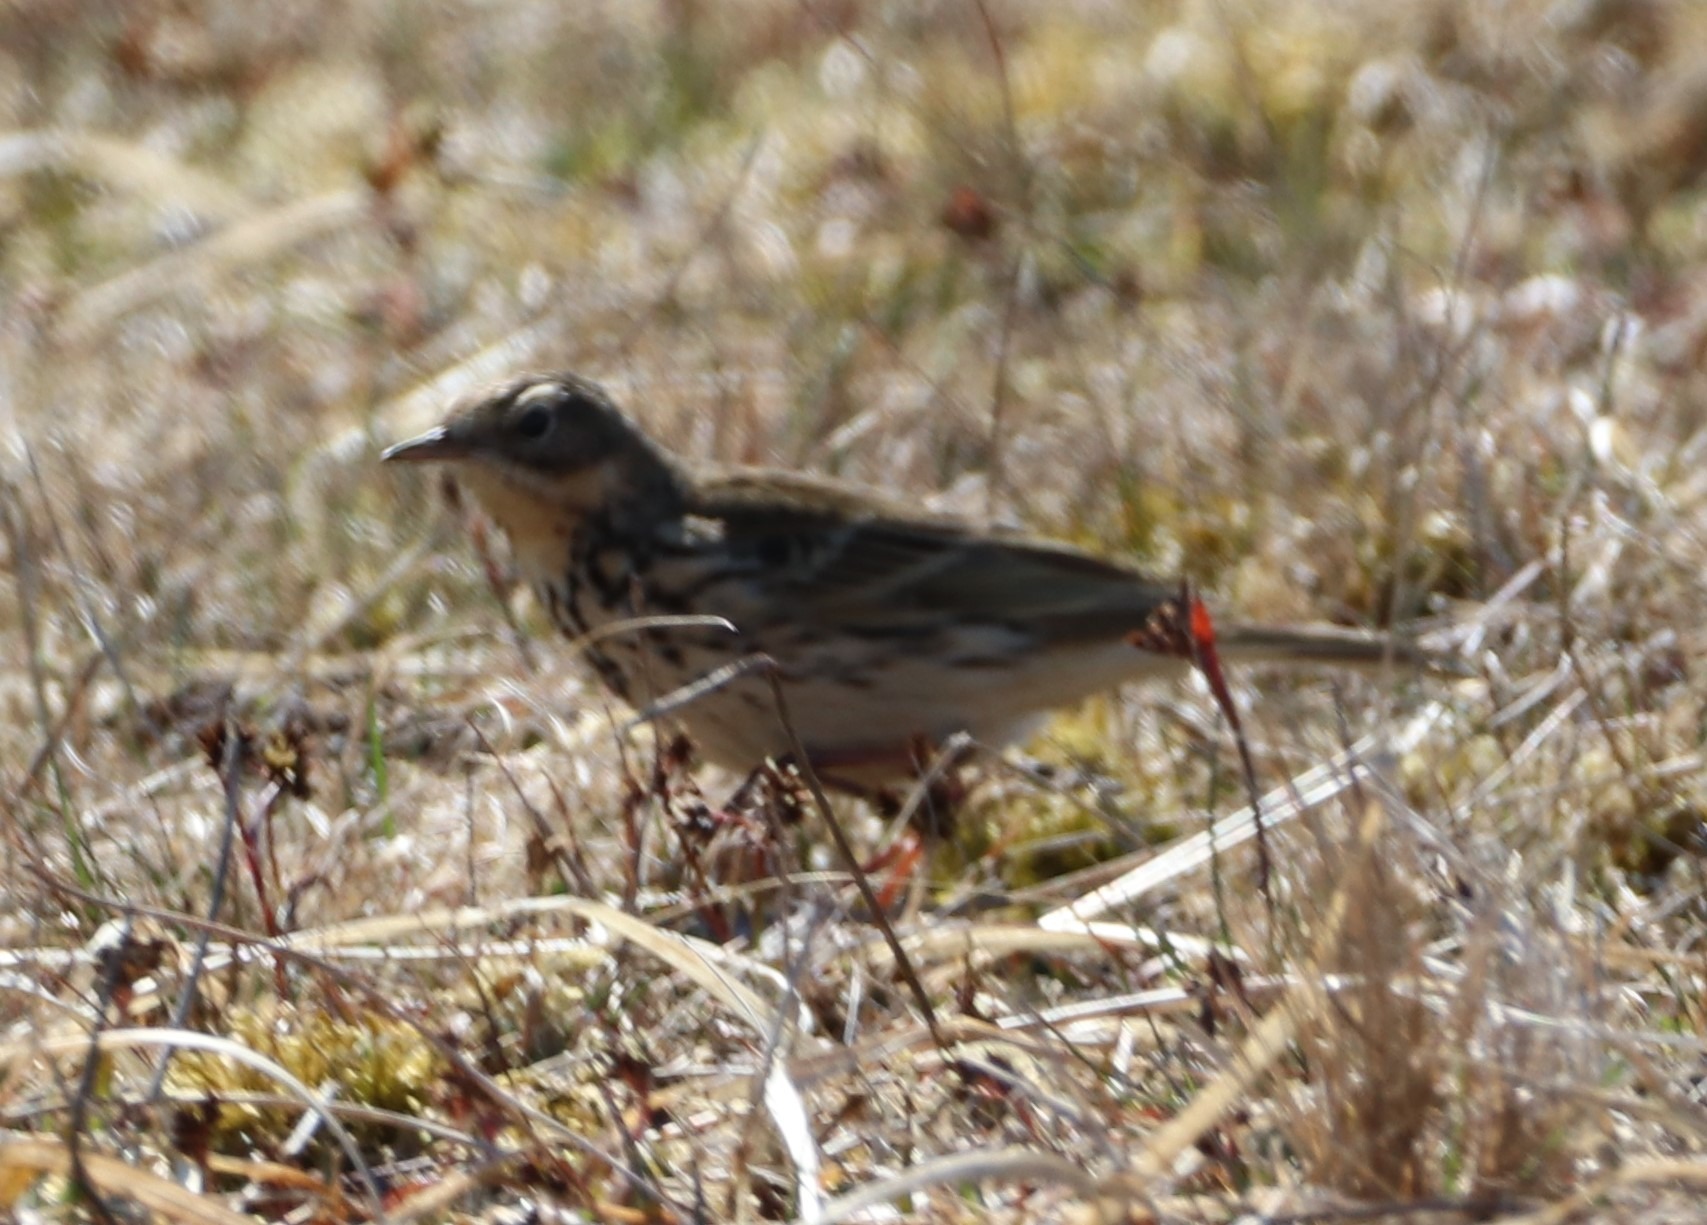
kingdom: Animalia
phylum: Chordata
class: Aves
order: Passeriformes
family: Motacillidae
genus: Anthus
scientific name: Anthus pratensis
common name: Engpiber
